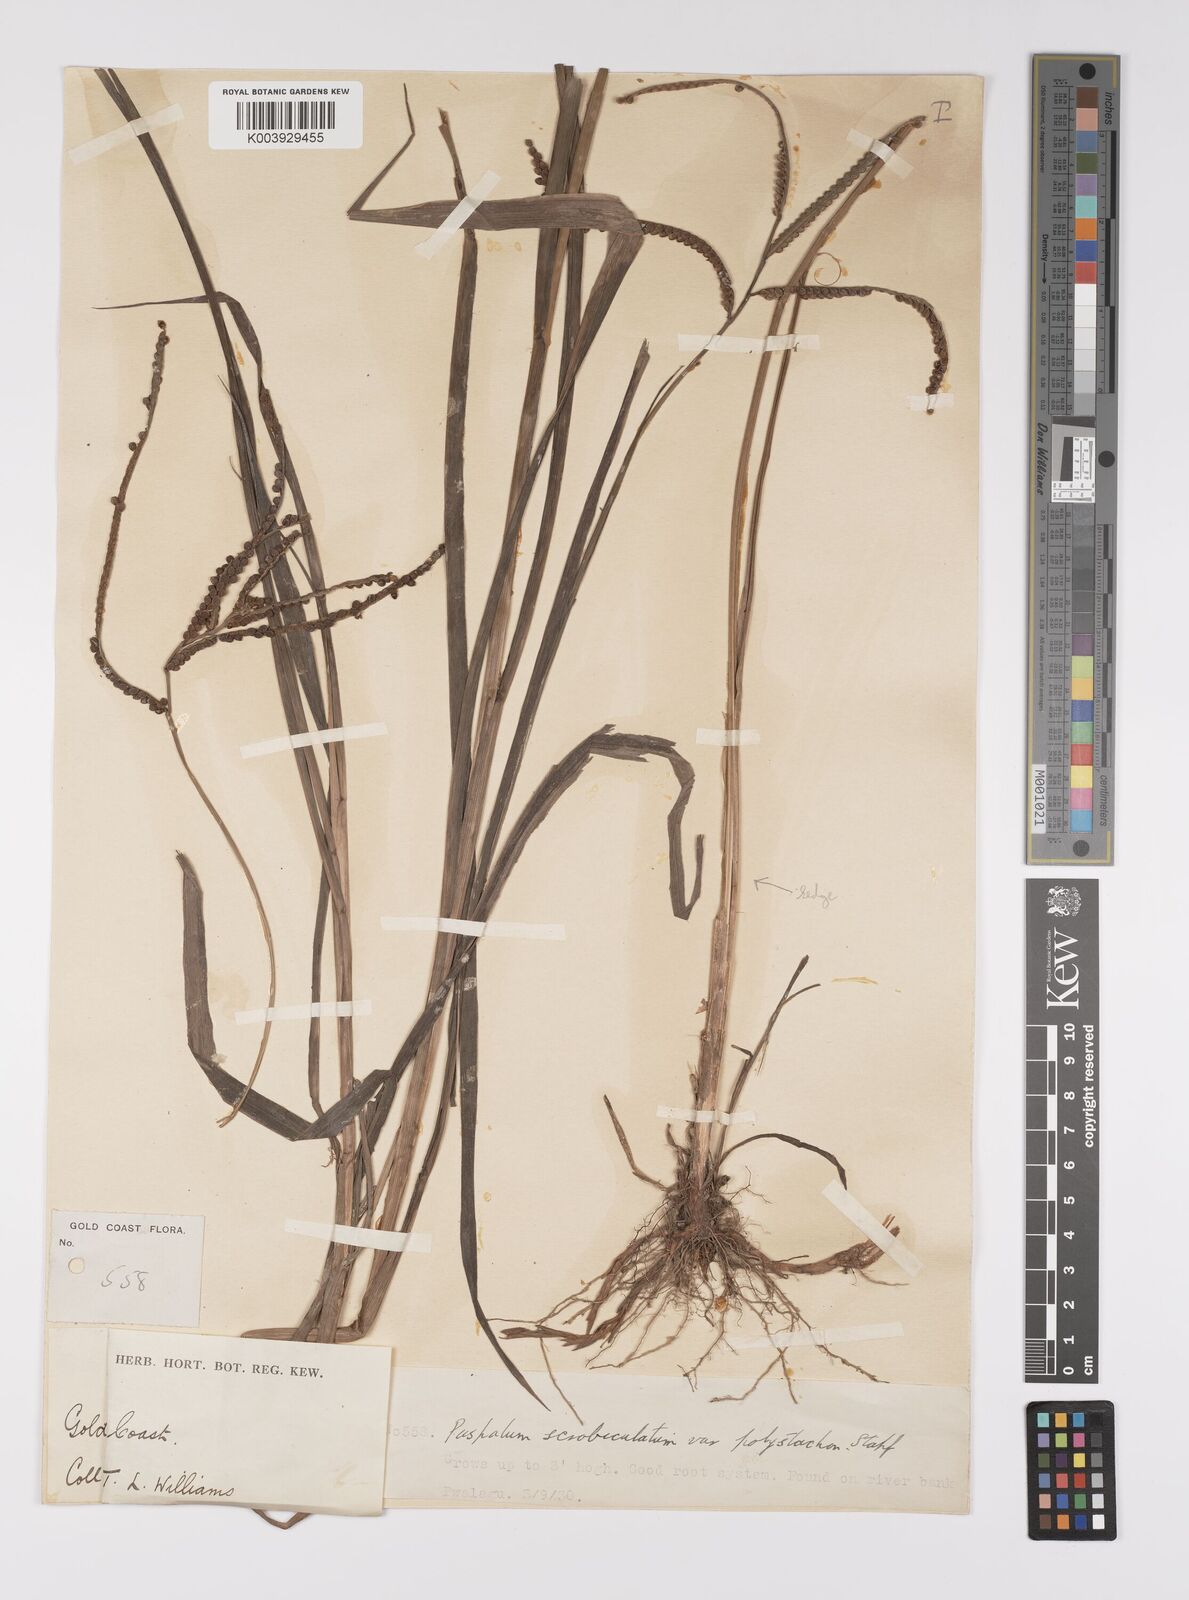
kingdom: Plantae
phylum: Tracheophyta
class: Liliopsida
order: Poales
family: Poaceae
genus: Paspalum
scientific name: Paspalum scrobiculatum
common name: Kodo millet
